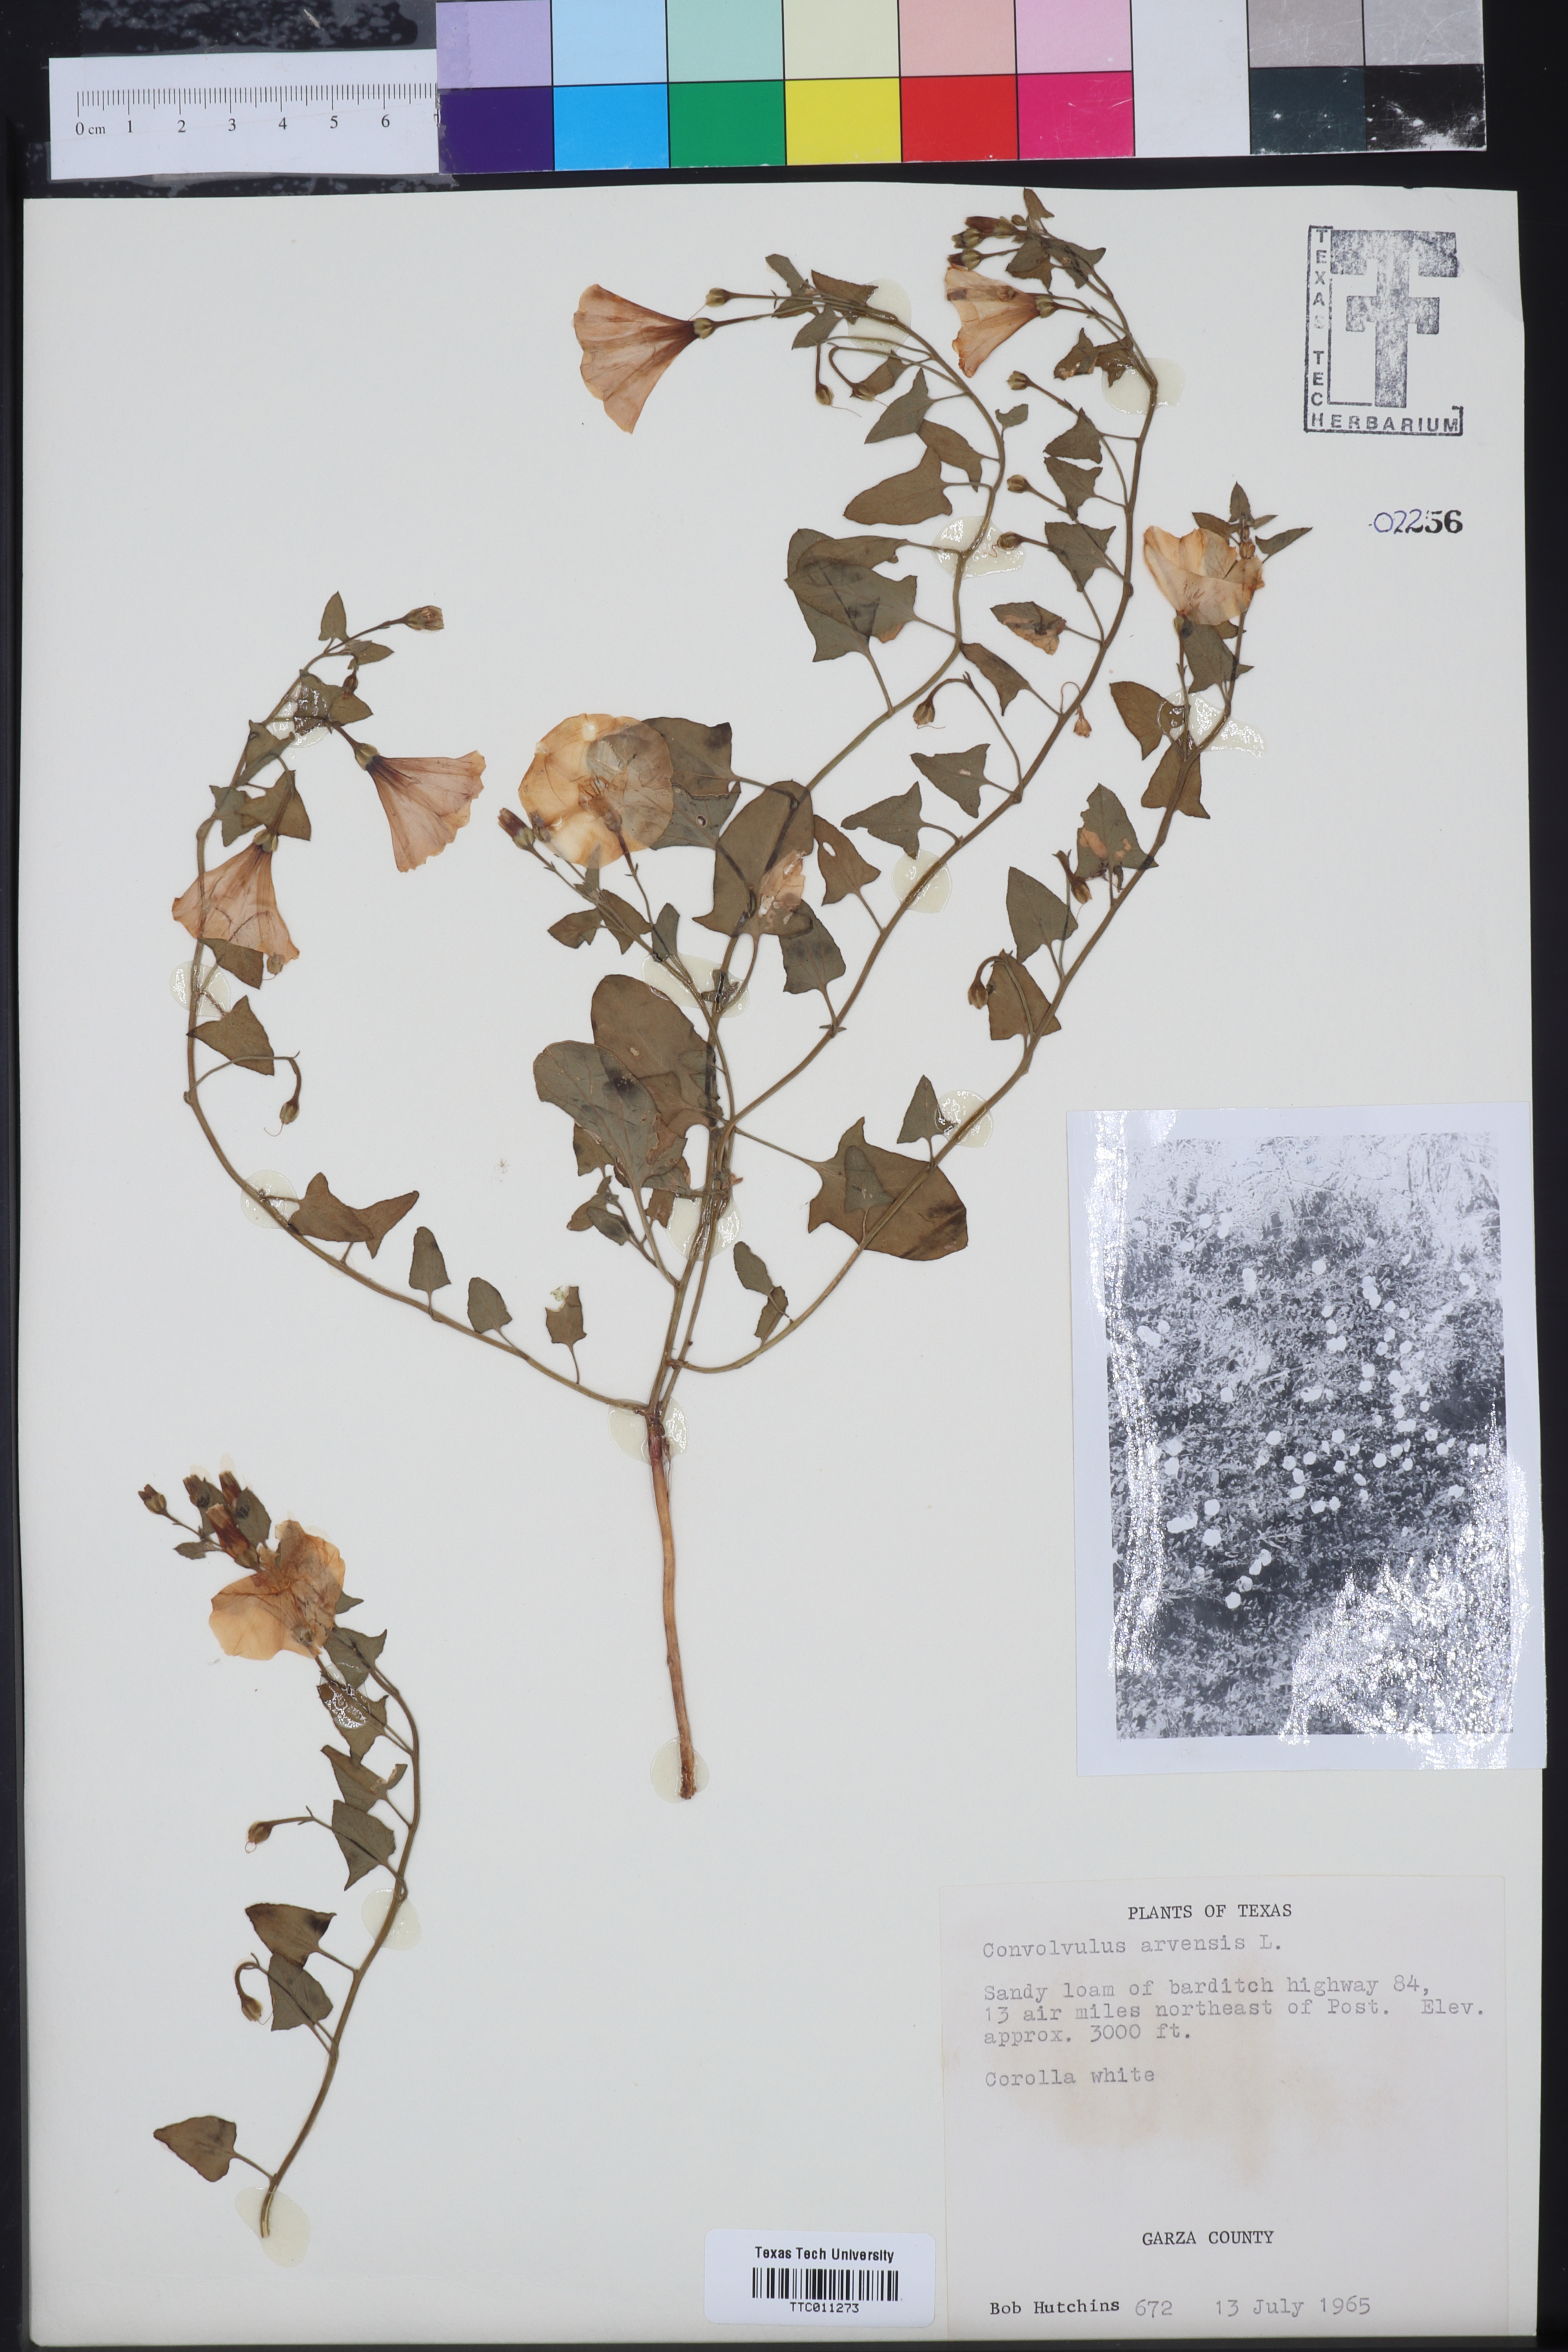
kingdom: Plantae
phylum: Tracheophyta
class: Magnoliopsida
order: Solanales
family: Convolvulaceae
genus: Convolvulus
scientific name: Convolvulus arvensis
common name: Field bindweed
